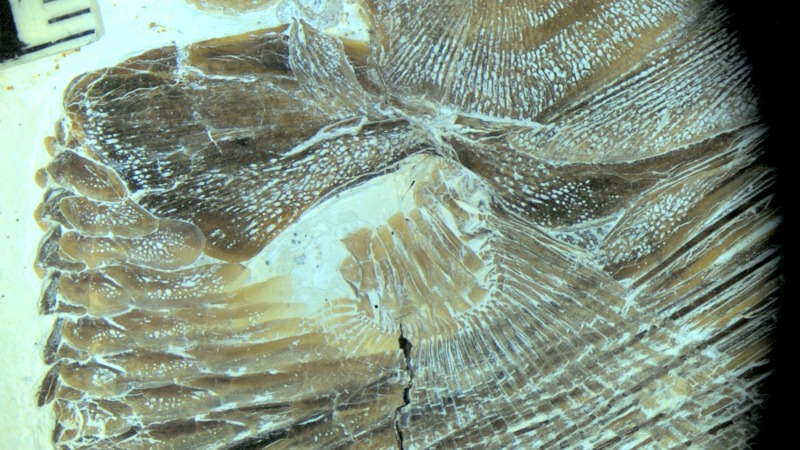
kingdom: Animalia
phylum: Chordata
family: Pycnodontidae
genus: Turbomesodon
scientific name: Turbomesodon relegans
